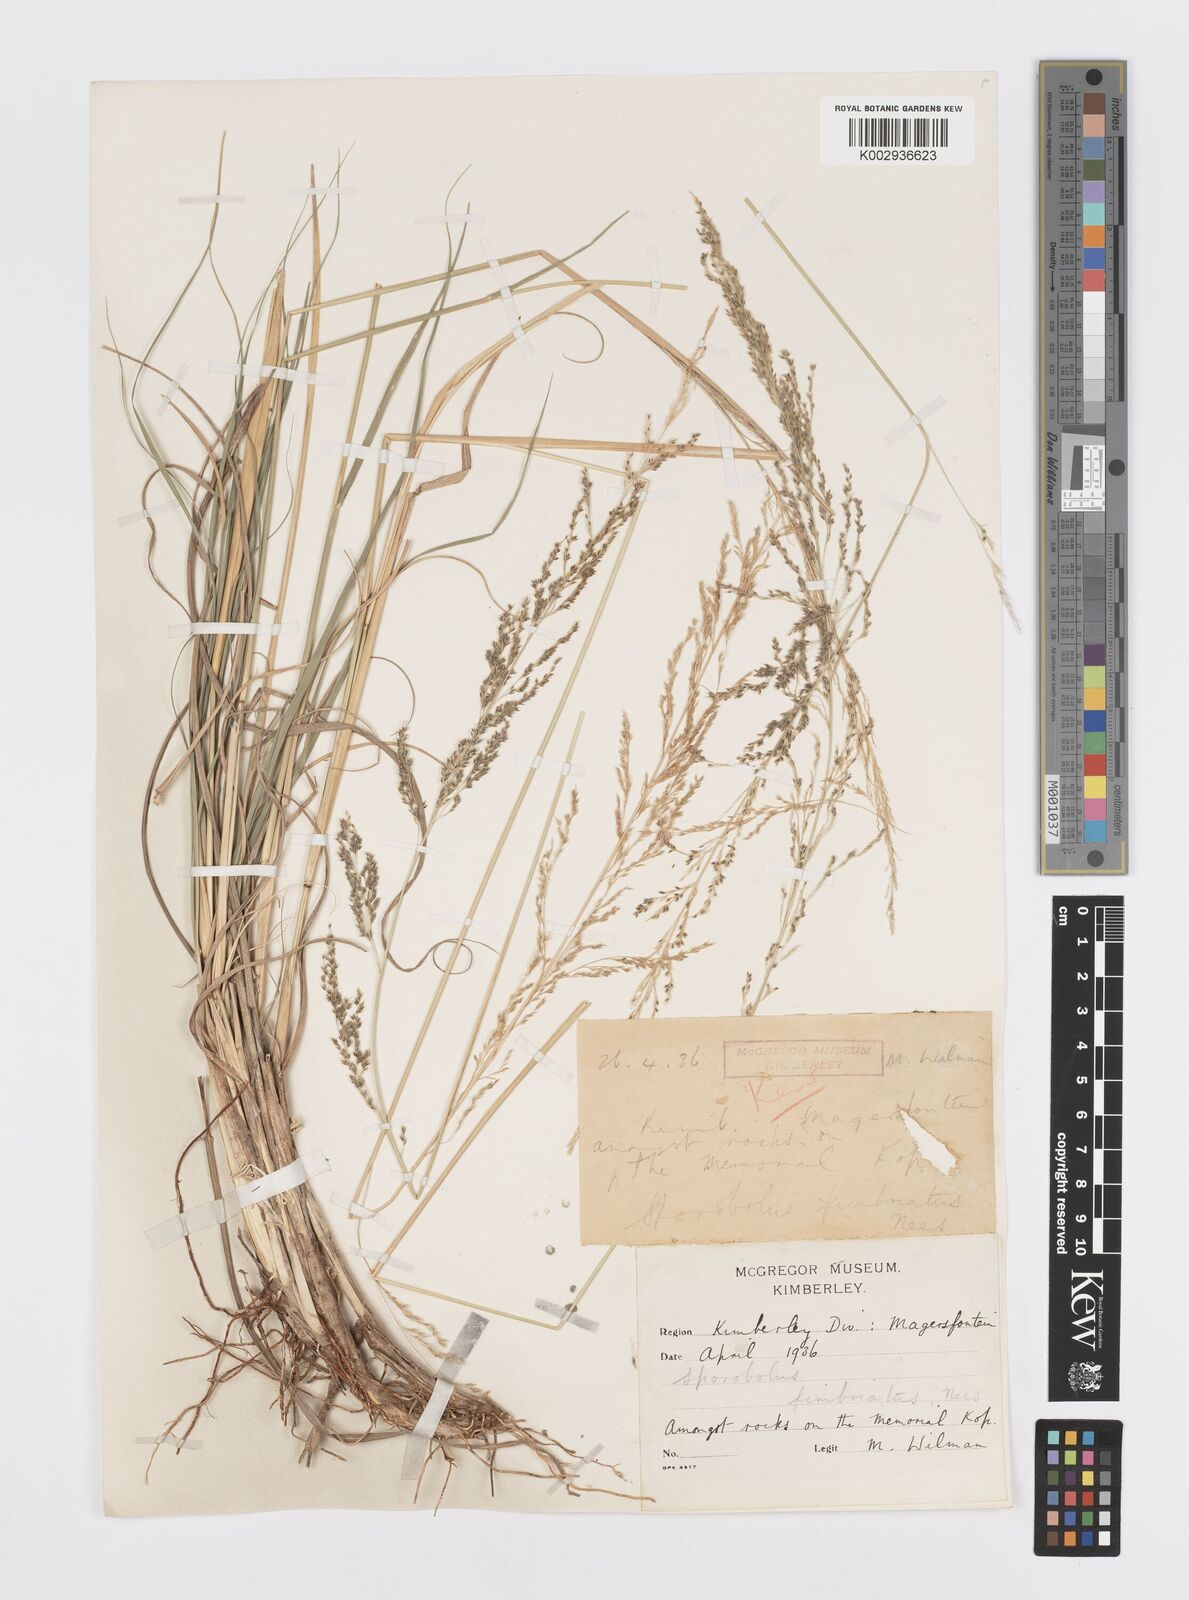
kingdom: Plantae
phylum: Tracheophyta
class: Liliopsida
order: Poales
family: Poaceae
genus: Sporobolus
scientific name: Sporobolus fimbriatus
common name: Fringed dropseed
